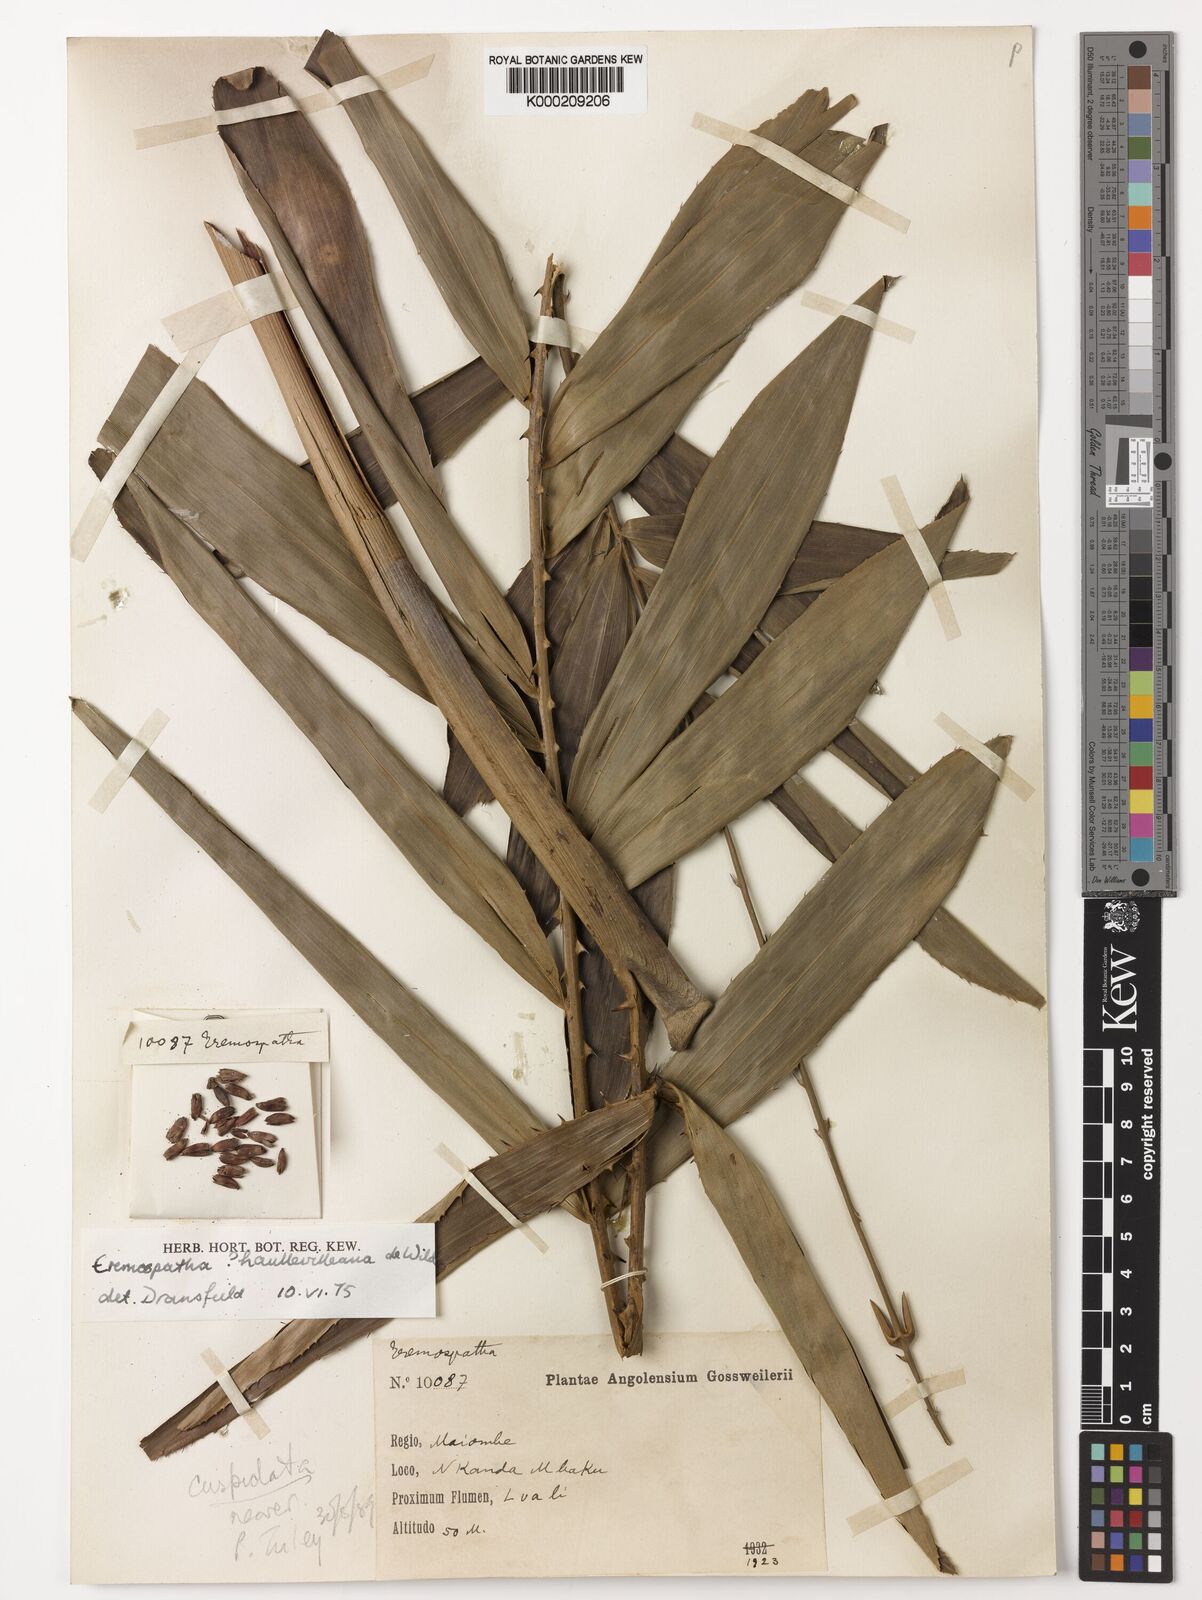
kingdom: Plantae
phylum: Tracheophyta
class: Liliopsida
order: Arecales
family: Arecaceae
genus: Eremospatha
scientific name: Eremospatha haullevilleana
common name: Rattan
